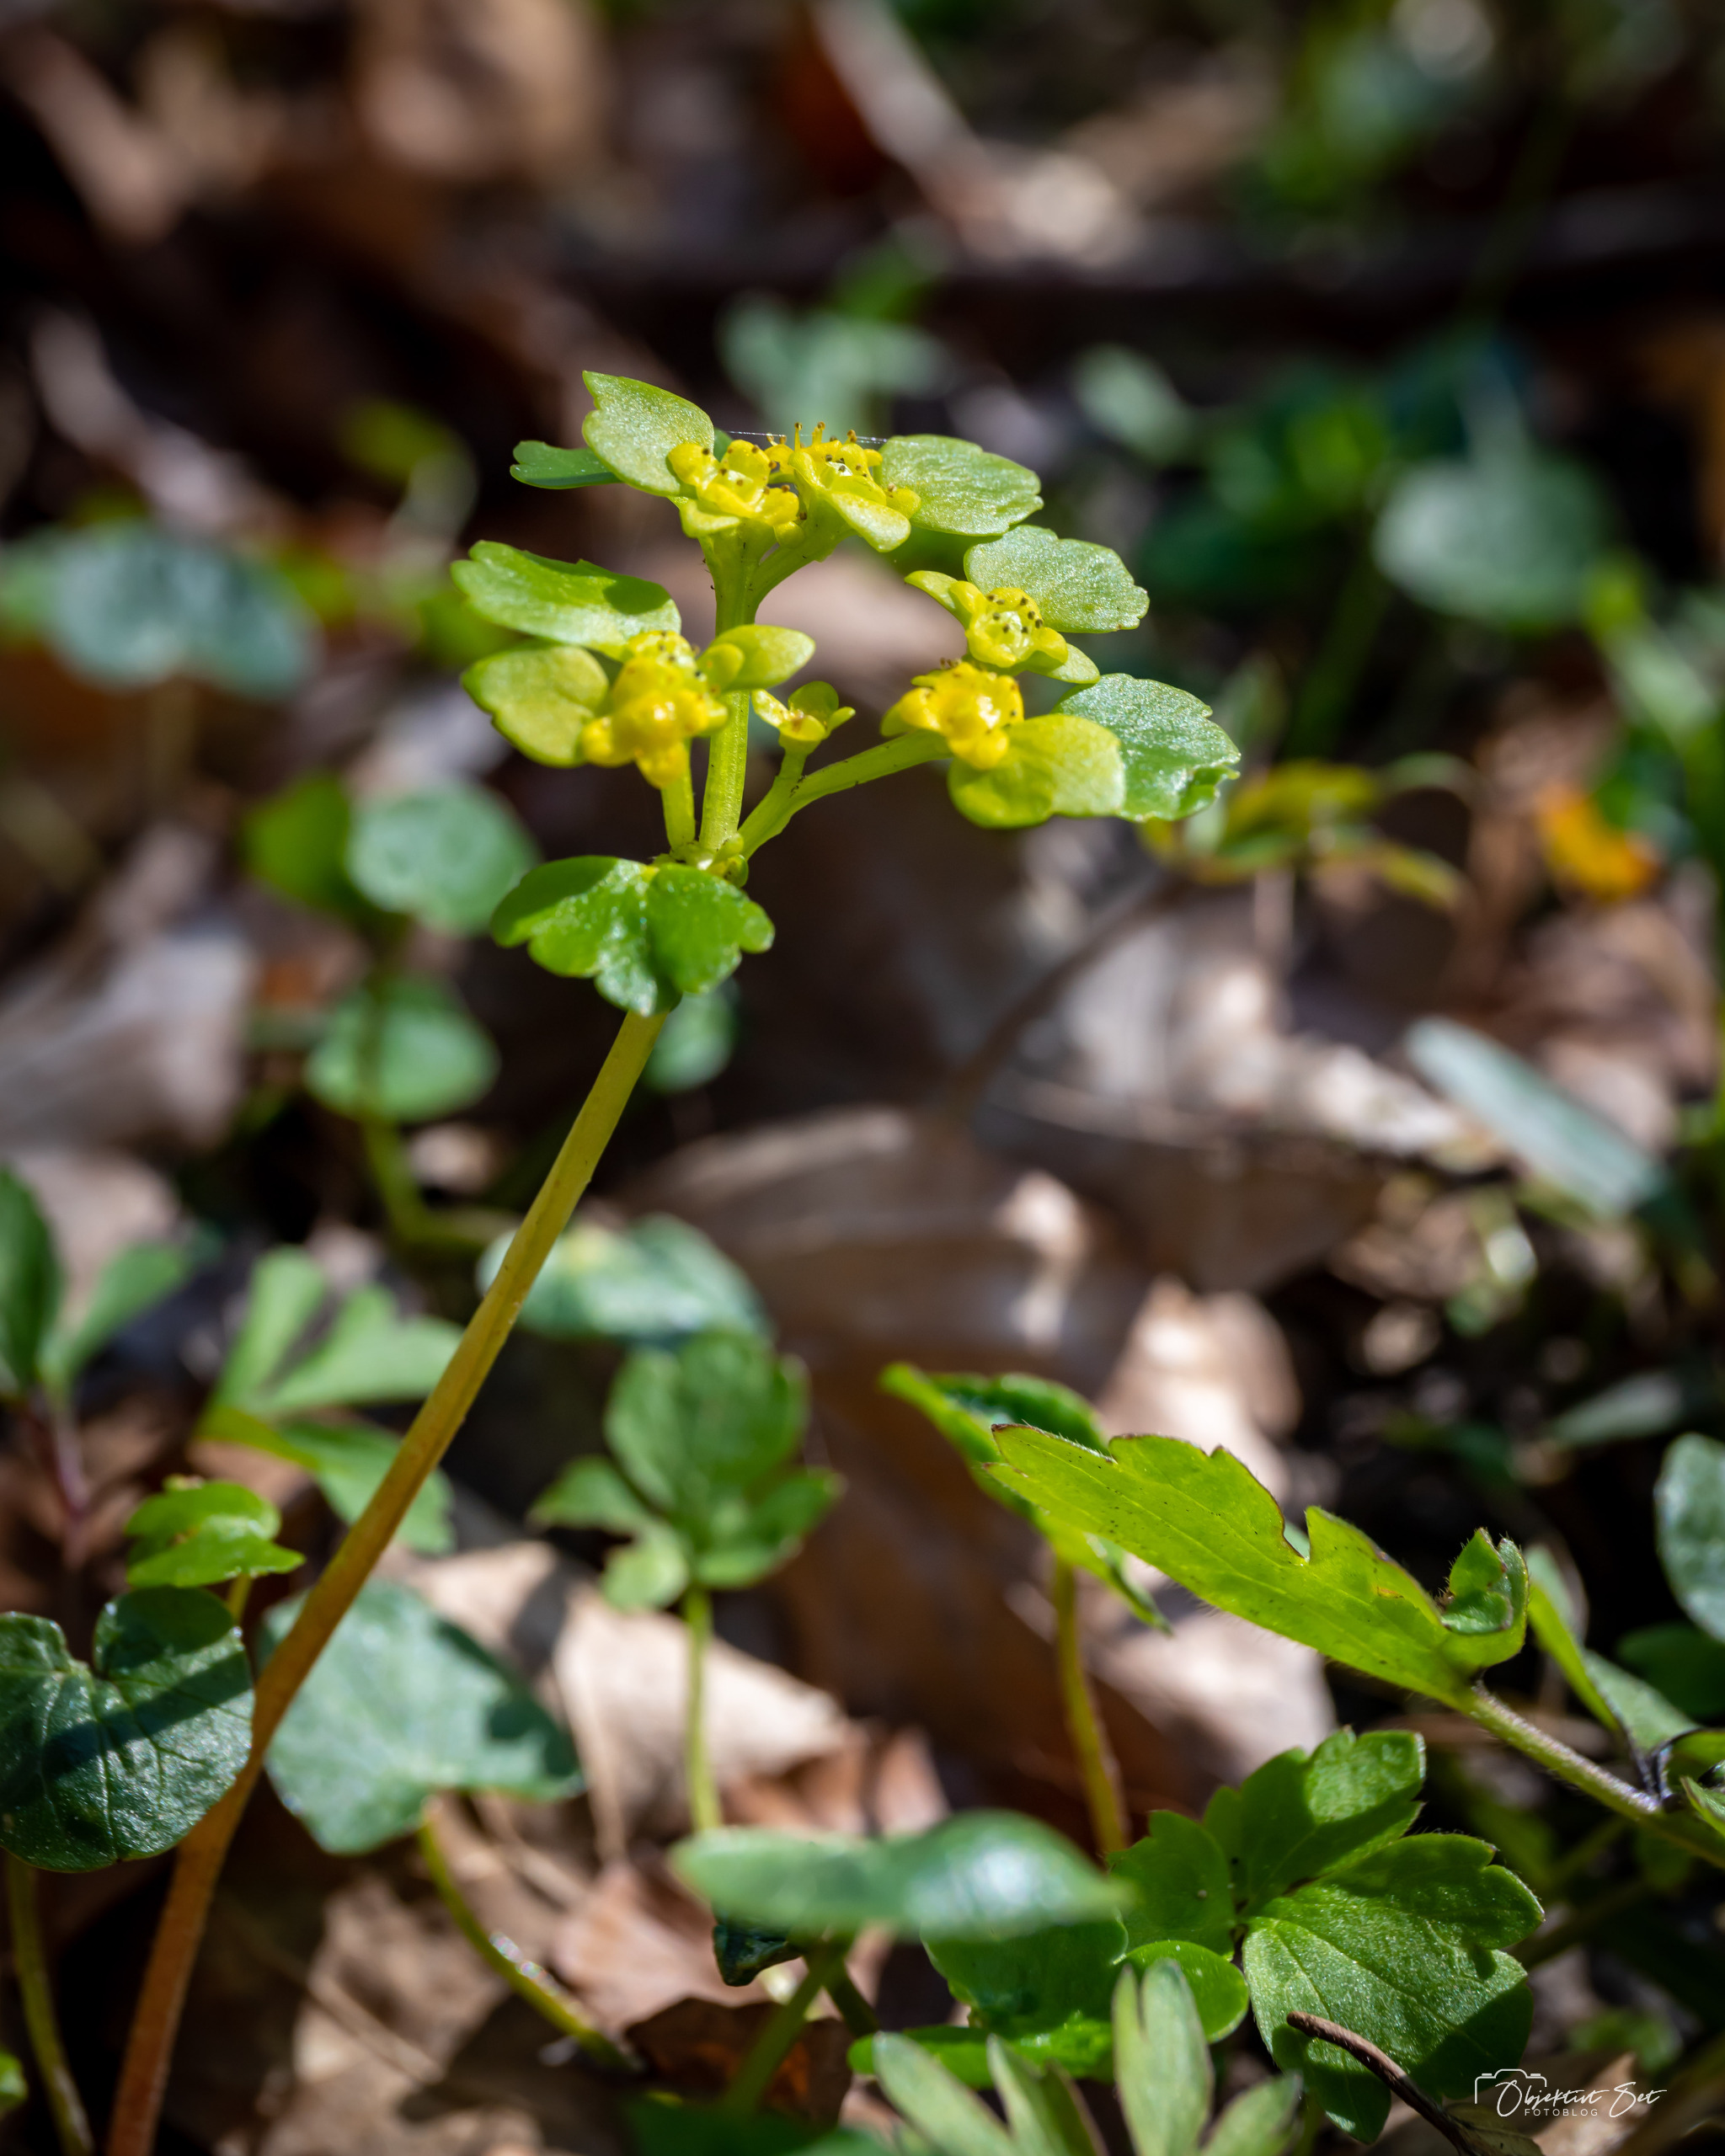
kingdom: Plantae
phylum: Tracheophyta
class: Magnoliopsida
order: Saxifragales
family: Saxifragaceae
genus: Chrysosplenium
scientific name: Chrysosplenium alternifolium
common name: Almindelig milturt
